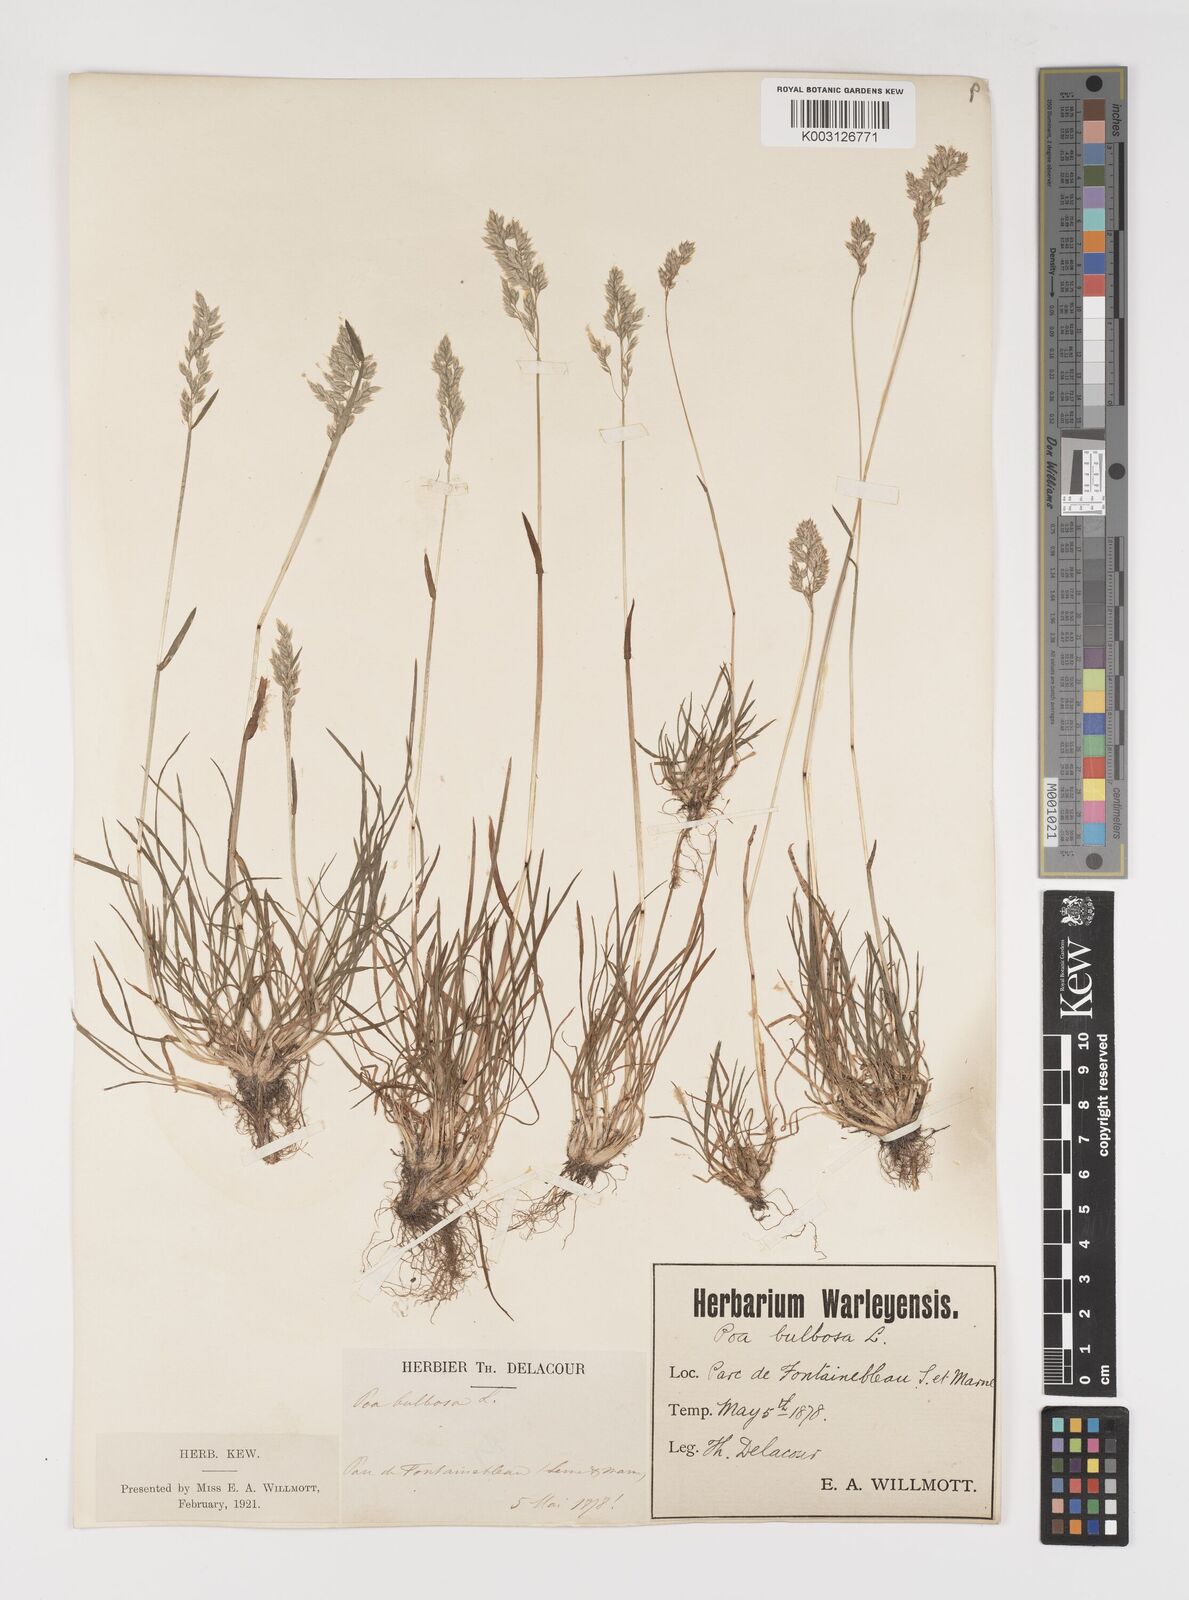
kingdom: Plantae
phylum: Tracheophyta
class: Liliopsida
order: Poales
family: Poaceae
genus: Poa
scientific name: Poa bulbosa
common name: Bulbous bluegrass
